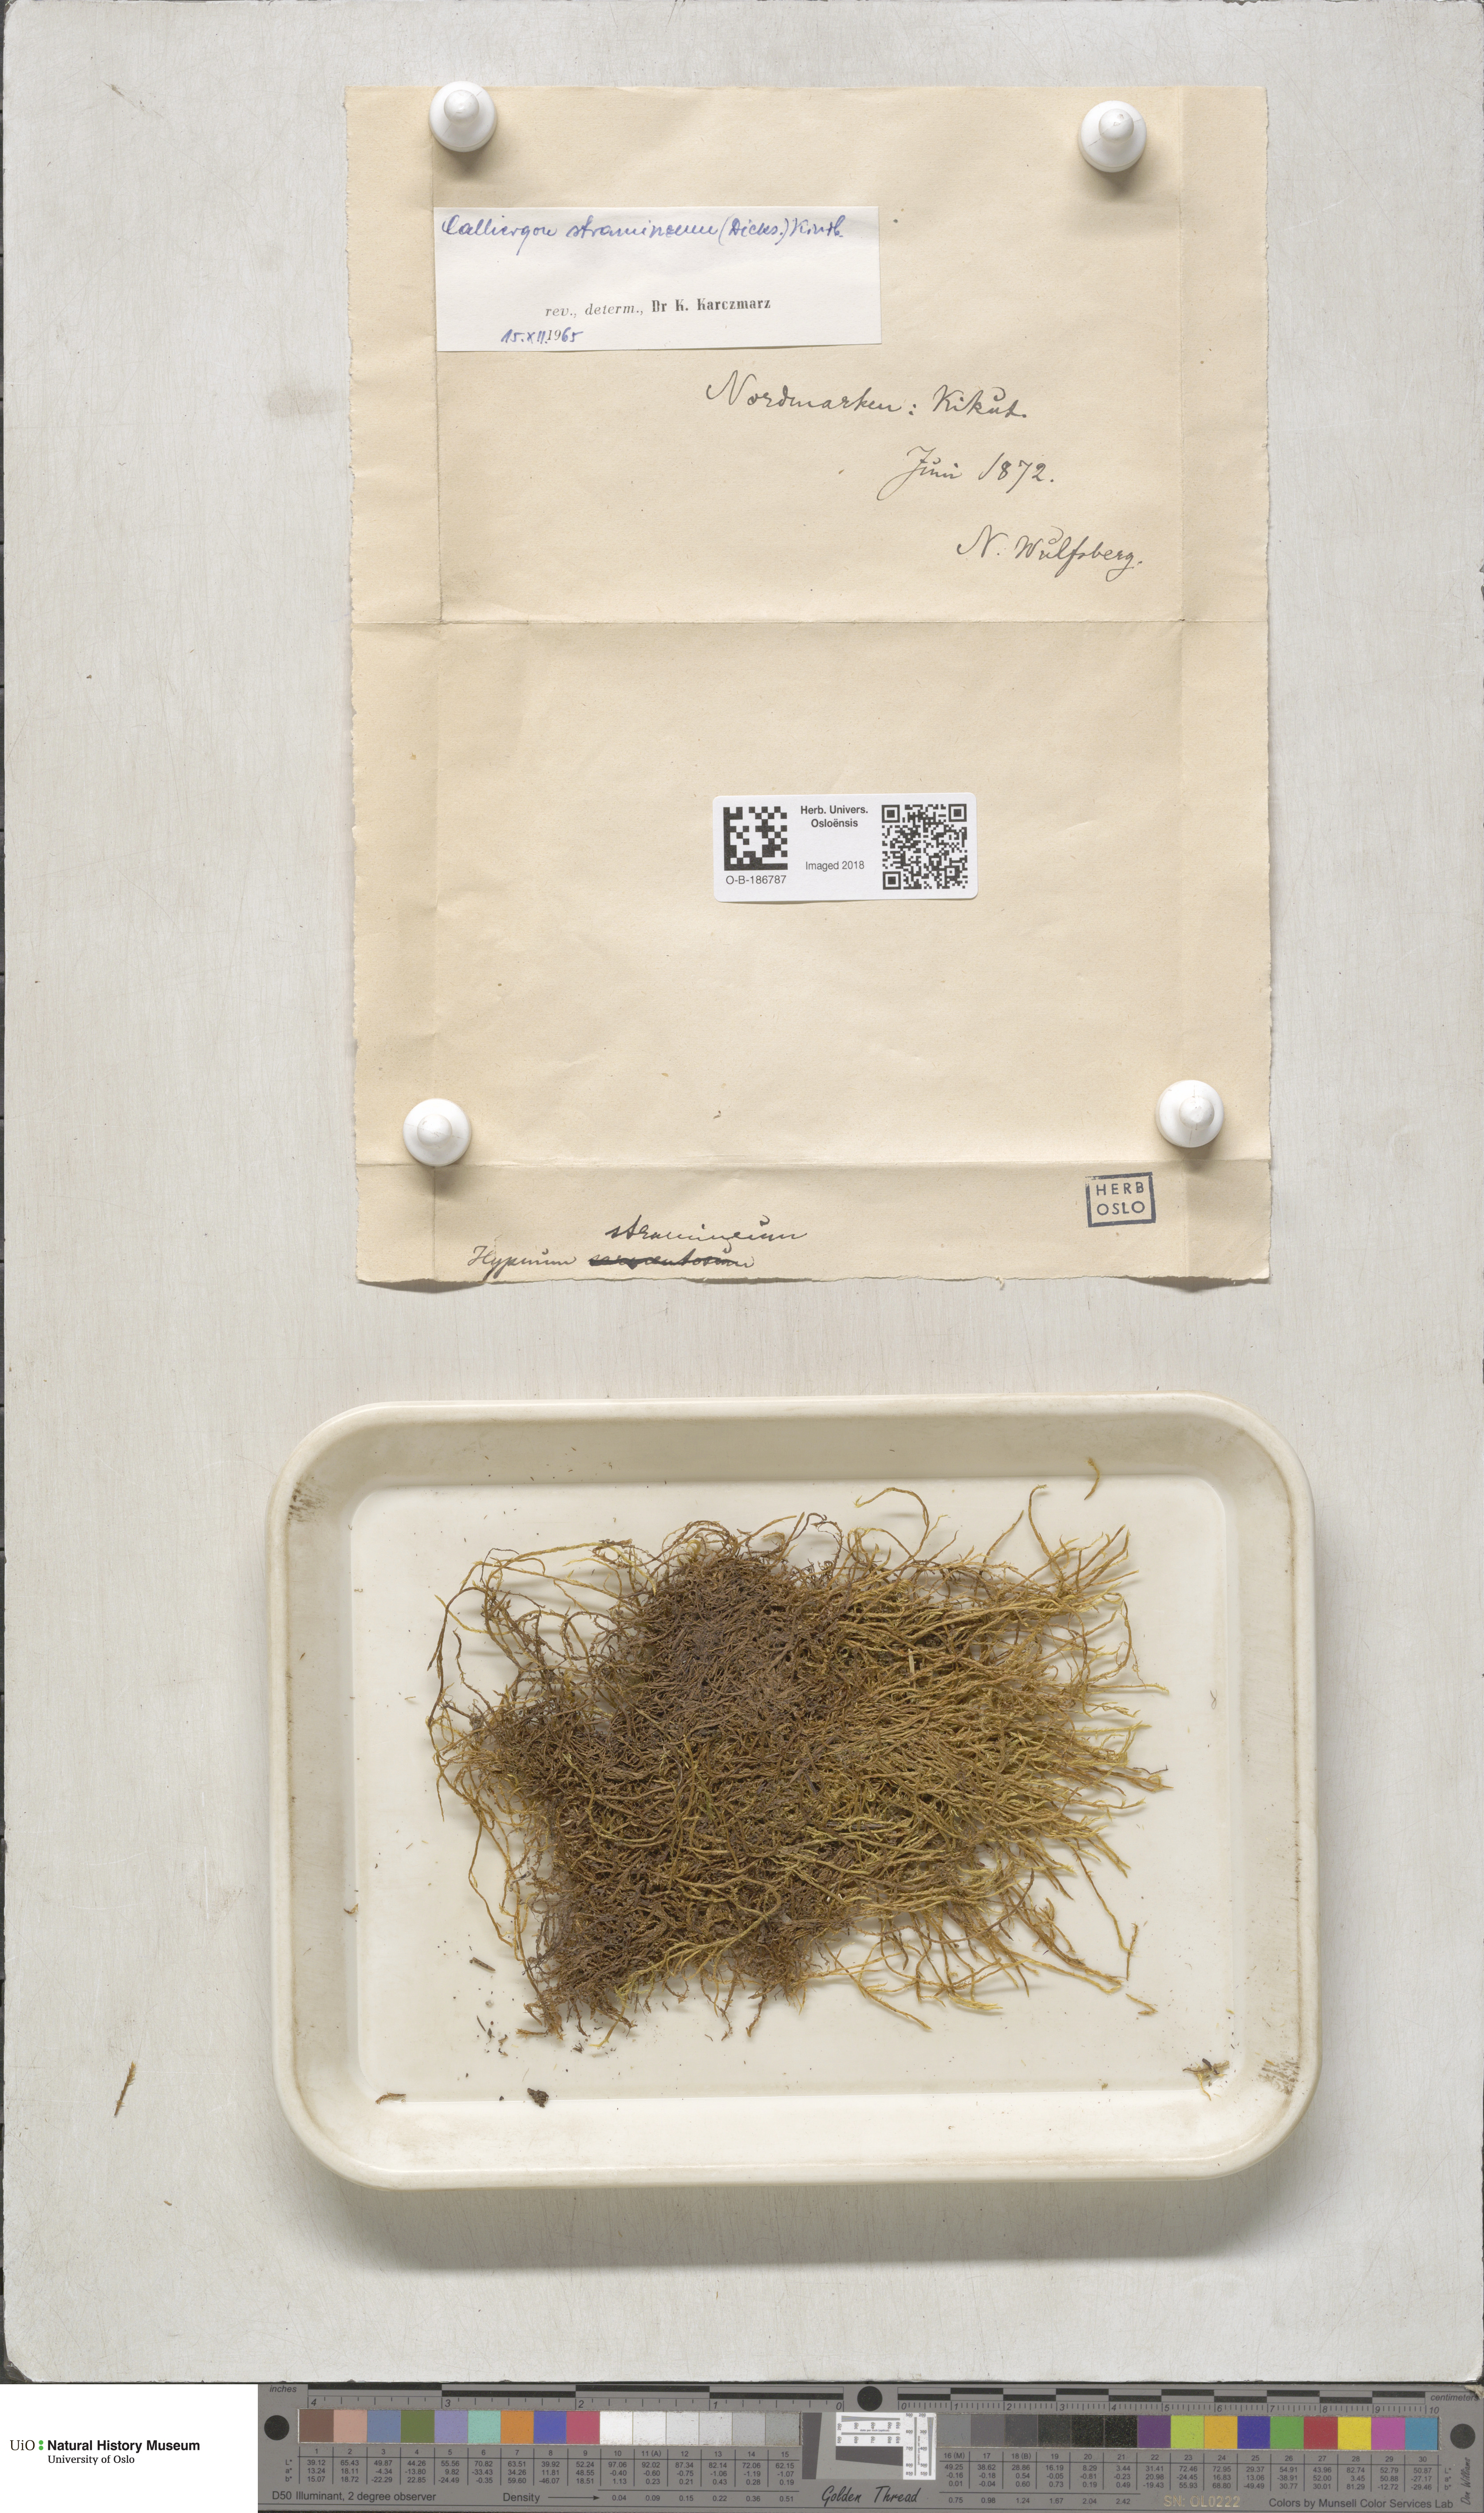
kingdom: Plantae
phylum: Bryophyta
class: Bryopsida
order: Hypnales
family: Calliergonaceae
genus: Straminergon
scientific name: Straminergon stramineum
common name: Straw moss
